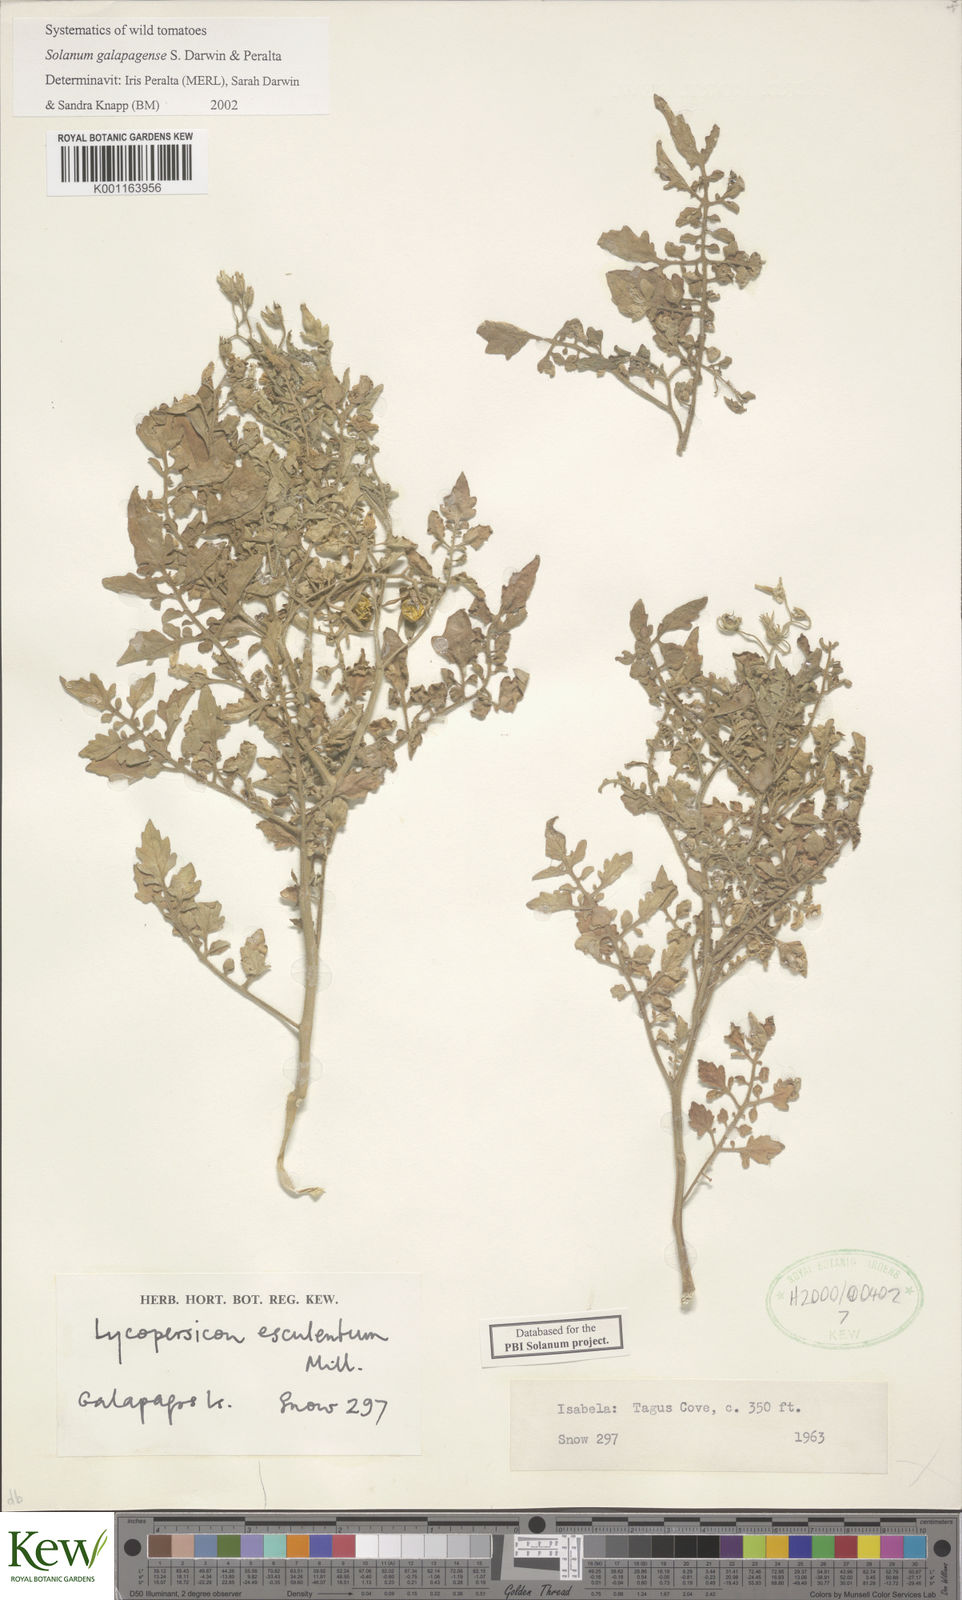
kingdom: Plantae
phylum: Tracheophyta
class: Magnoliopsida
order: Solanales
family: Solanaceae
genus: Solanum
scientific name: Solanum galapagense
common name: Galápagos tomato
